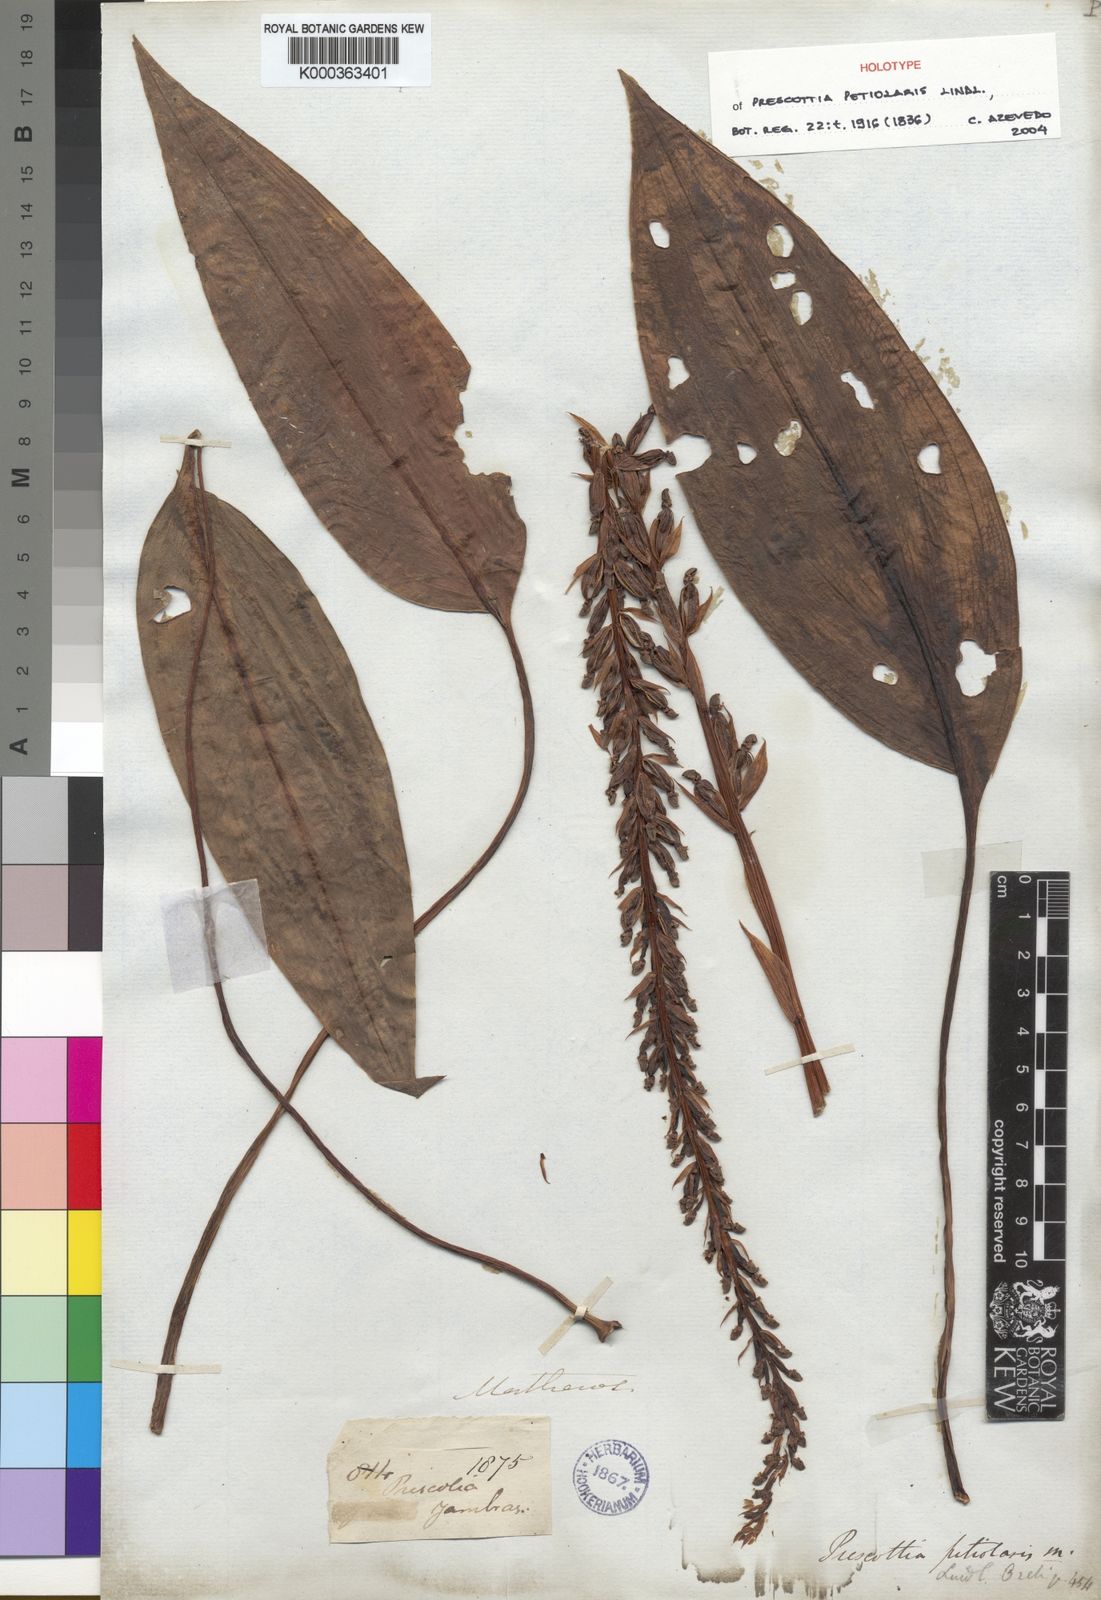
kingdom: Plantae
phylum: Tracheophyta
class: Liliopsida
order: Asparagales
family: Orchidaceae
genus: Prescottia
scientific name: Prescottia petiolaris
